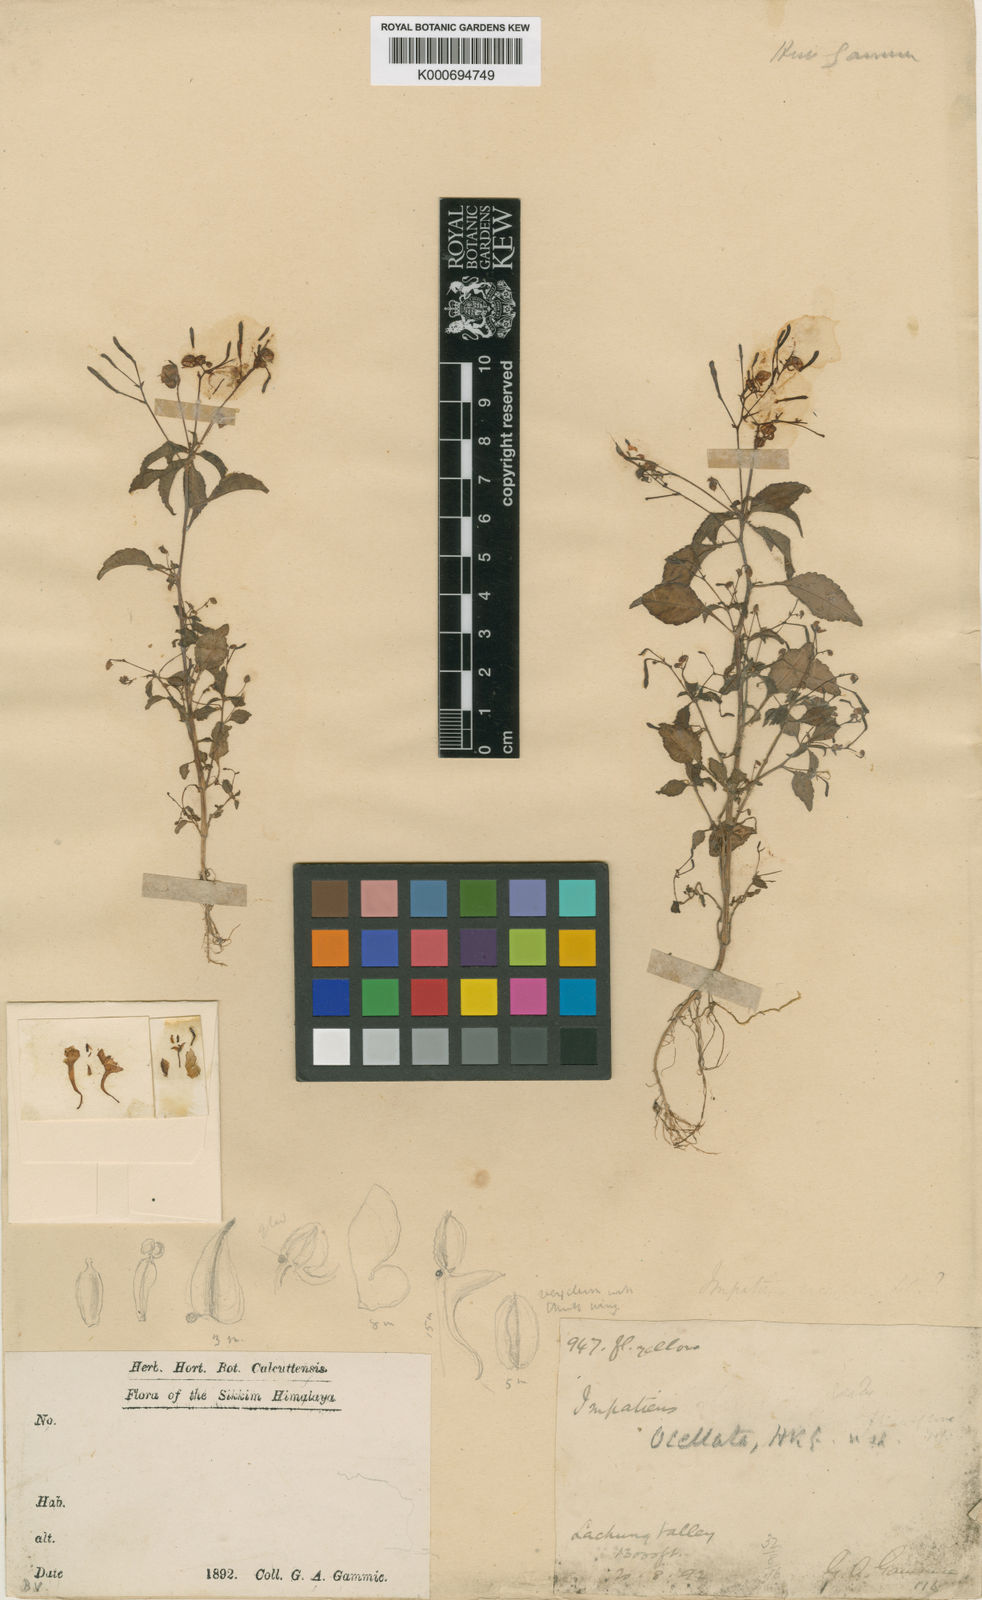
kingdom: Plantae
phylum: Tracheophyta
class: Magnoliopsida
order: Ericales
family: Balsaminaceae
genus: Impatiens
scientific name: Impatiens
